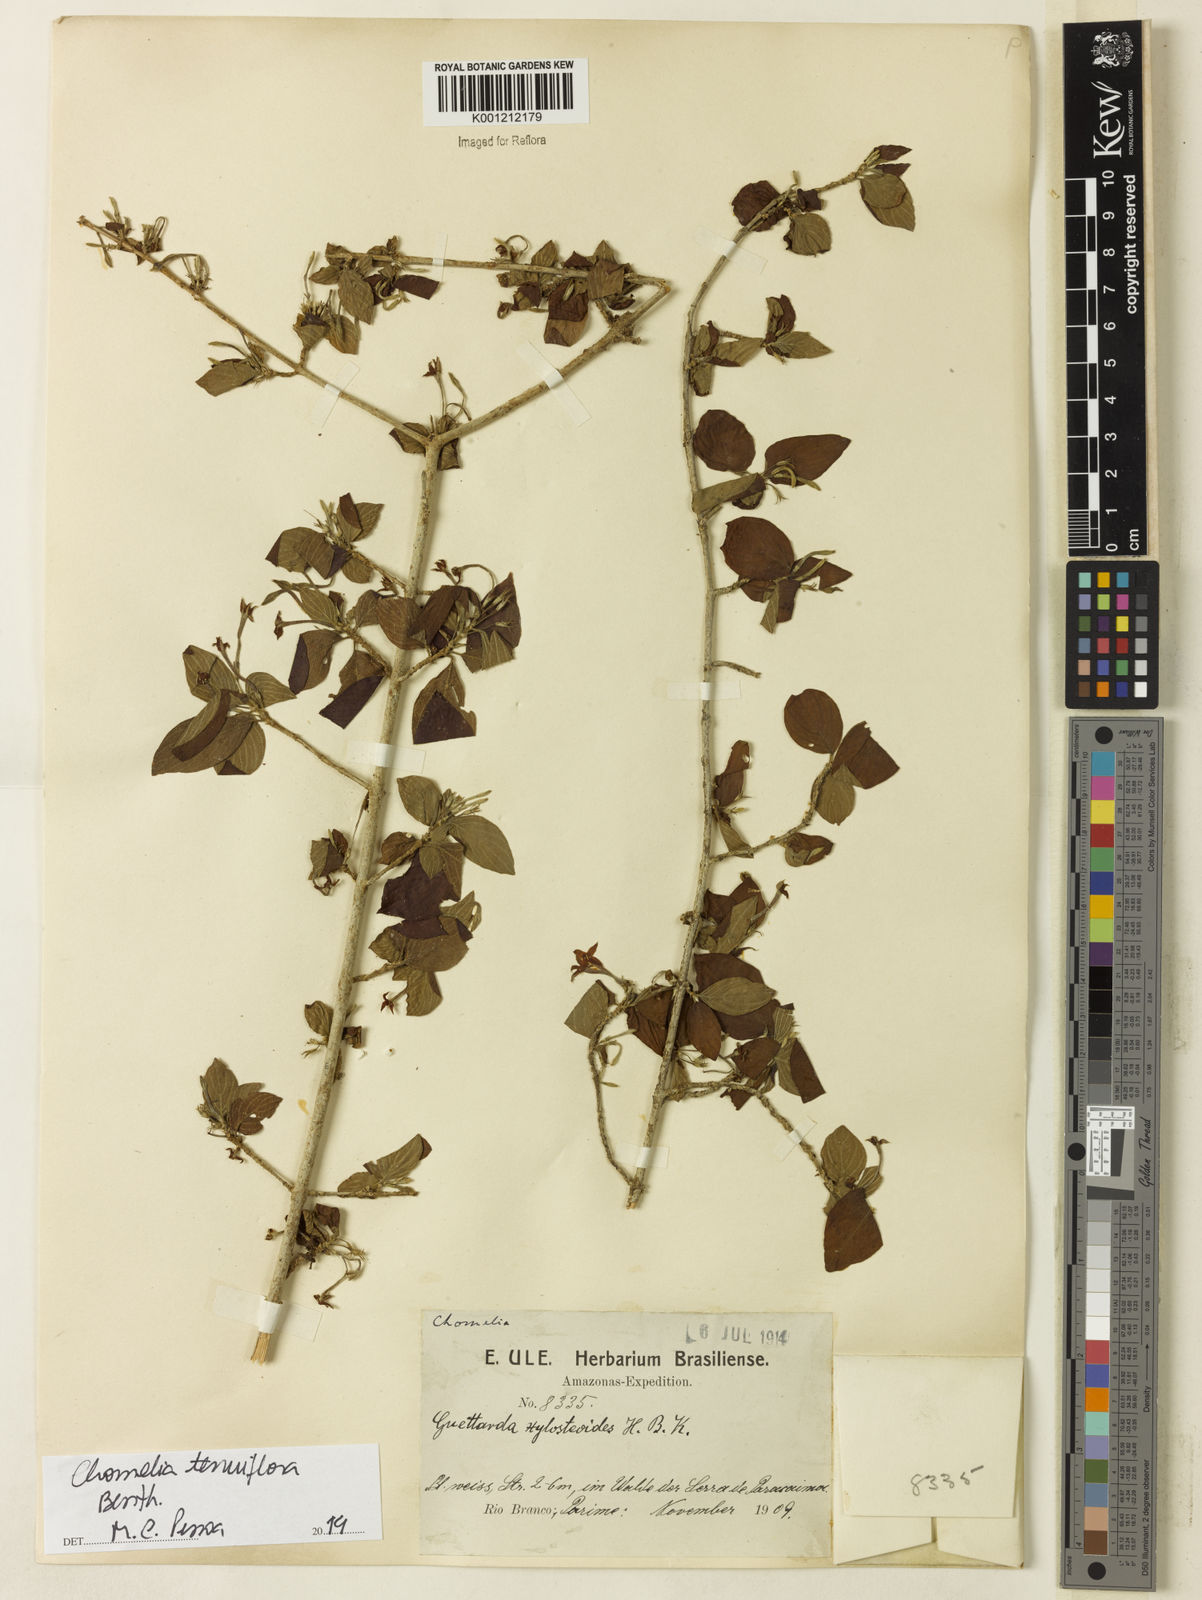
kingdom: Plantae
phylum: Tracheophyta
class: Magnoliopsida
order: Gentianales
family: Rubiaceae
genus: Chomelia
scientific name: Chomelia tenuiflora
